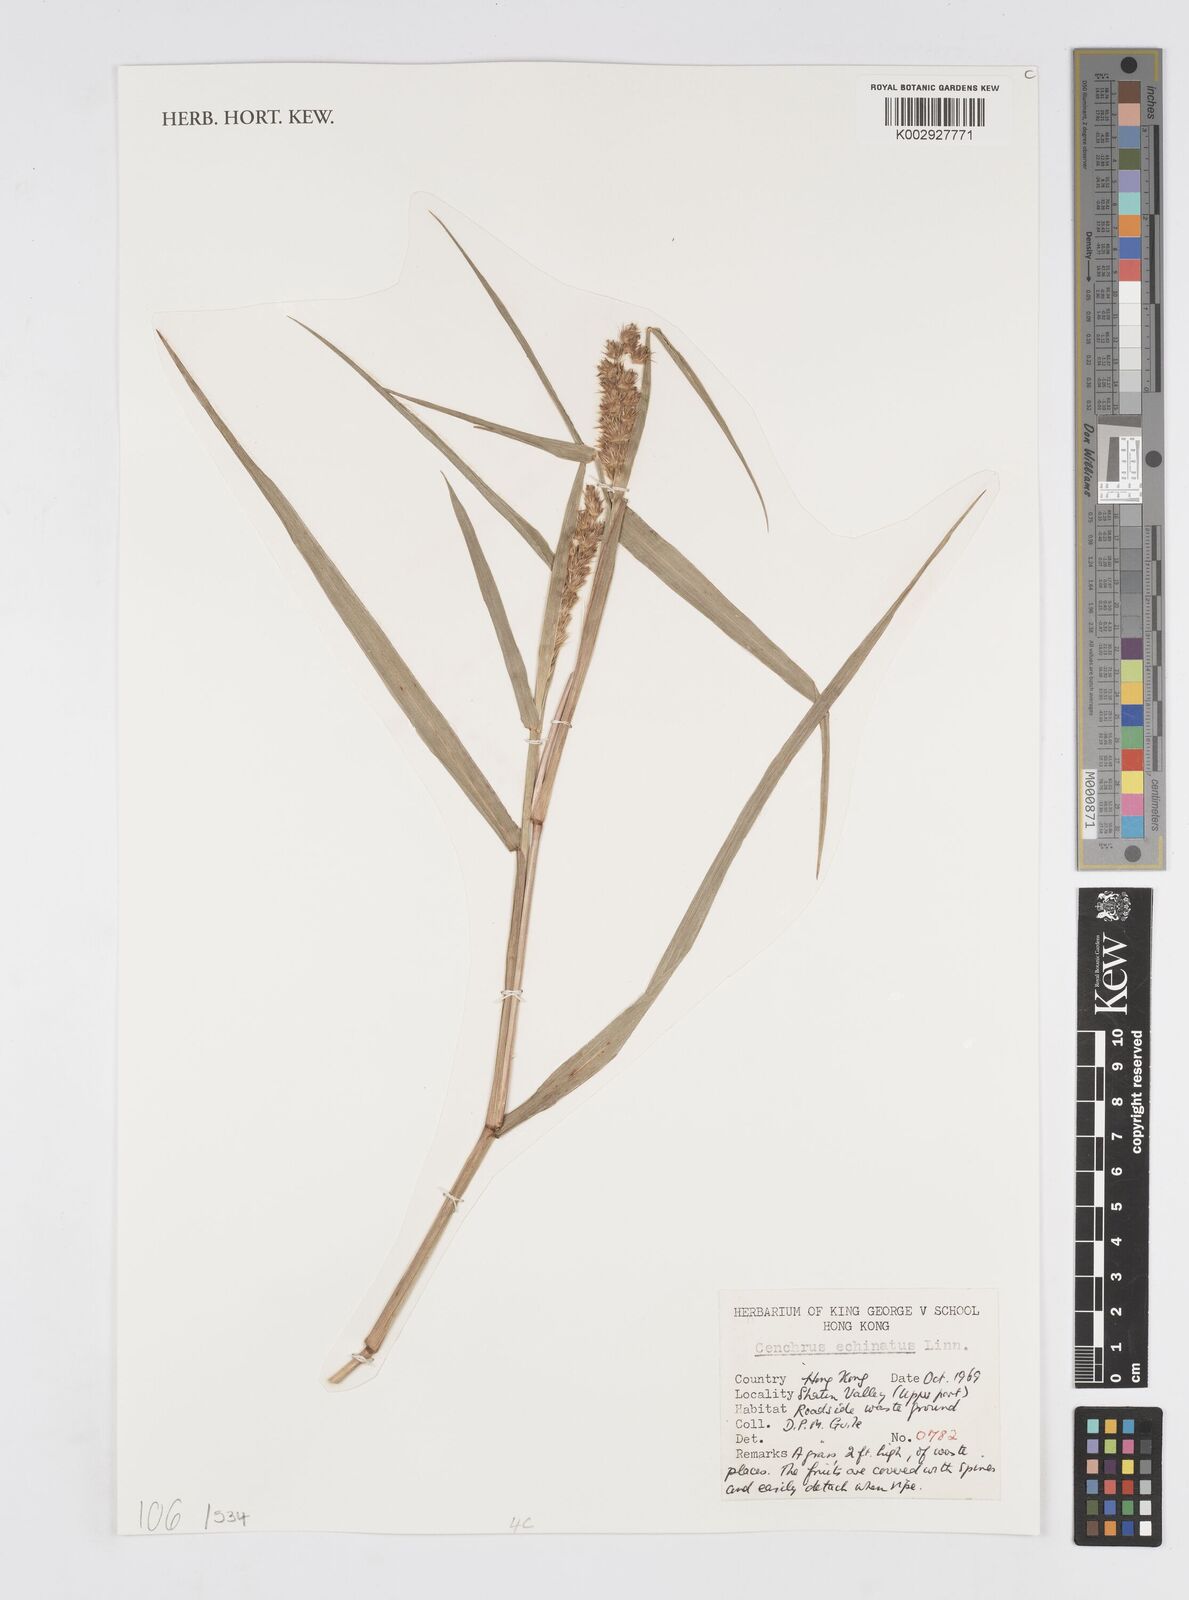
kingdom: Plantae
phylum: Tracheophyta
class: Liliopsida
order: Poales
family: Poaceae
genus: Cenchrus
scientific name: Cenchrus echinatus
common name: Southern sandbur
